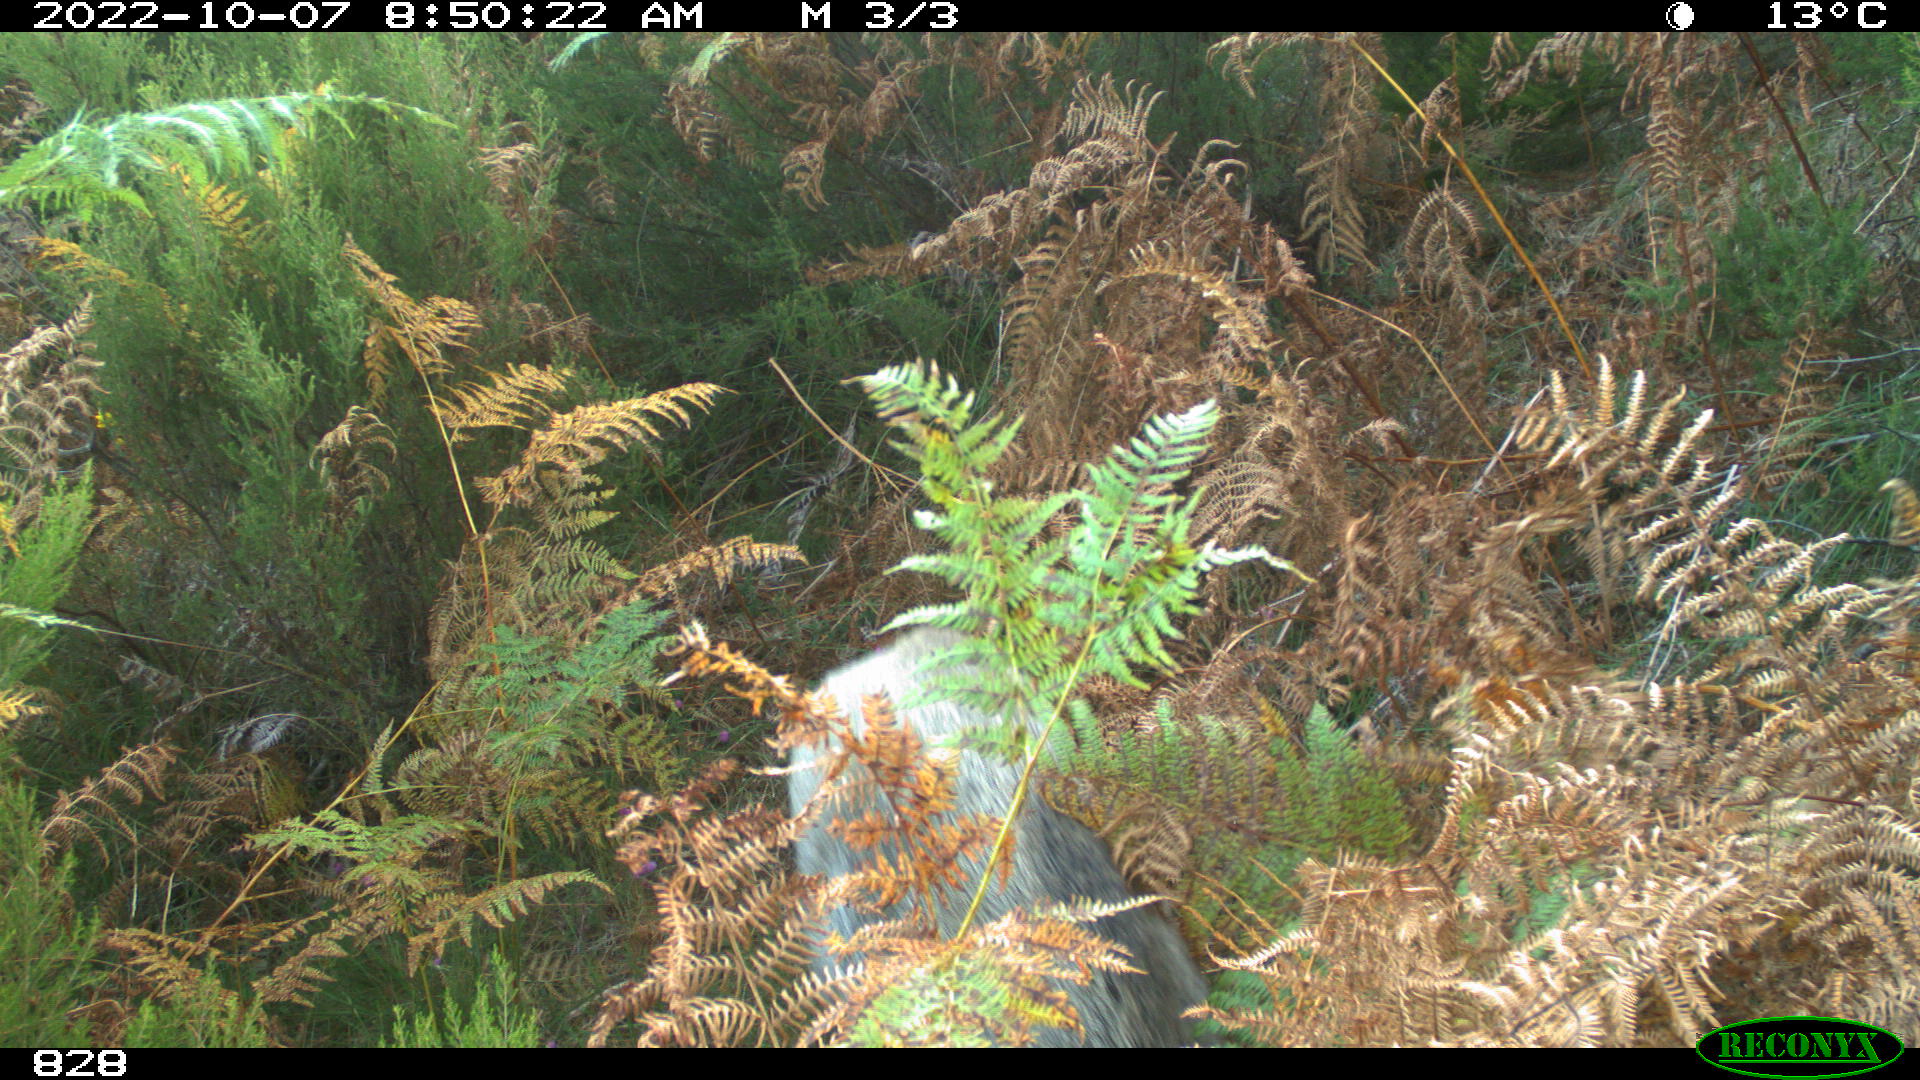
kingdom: Animalia
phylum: Chordata
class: Mammalia
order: Artiodactyla
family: Suidae
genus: Sus
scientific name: Sus scrofa
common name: Wild boar
